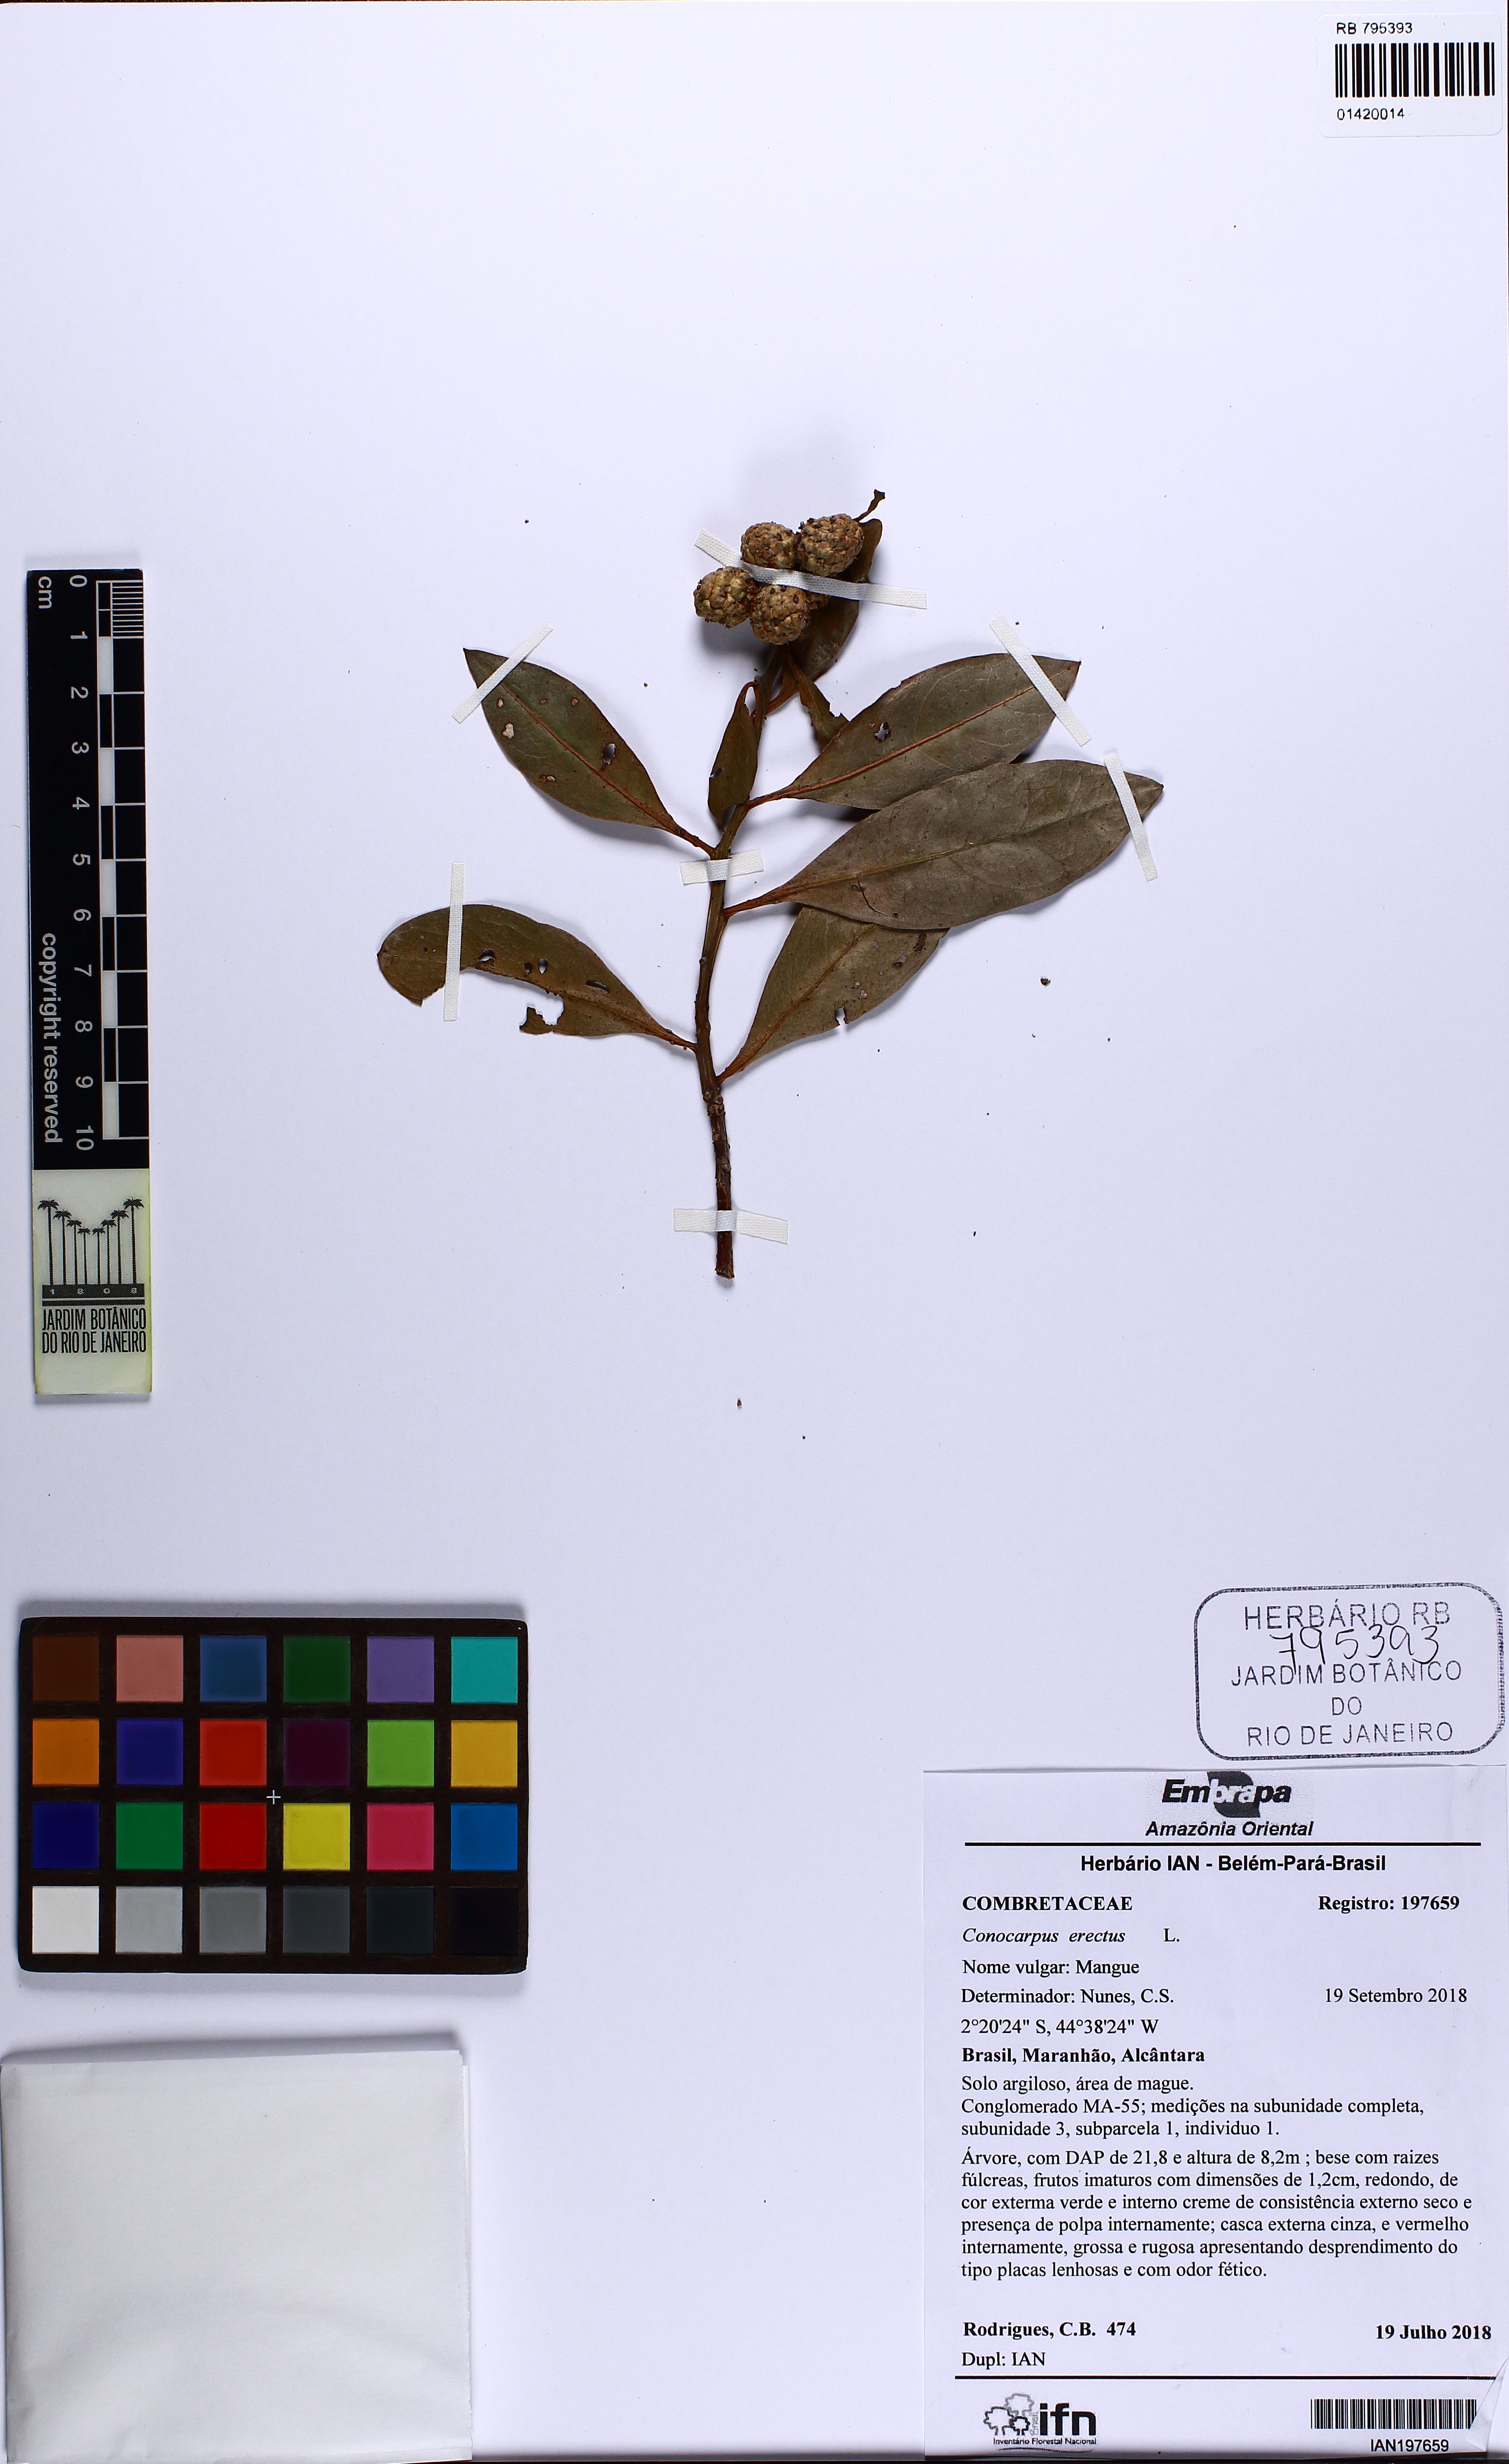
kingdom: Plantae
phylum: Tracheophyta
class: Magnoliopsida
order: Myrtales
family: Combretaceae
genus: Conocarpus
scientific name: Conocarpus erectus
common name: Button mangrove
